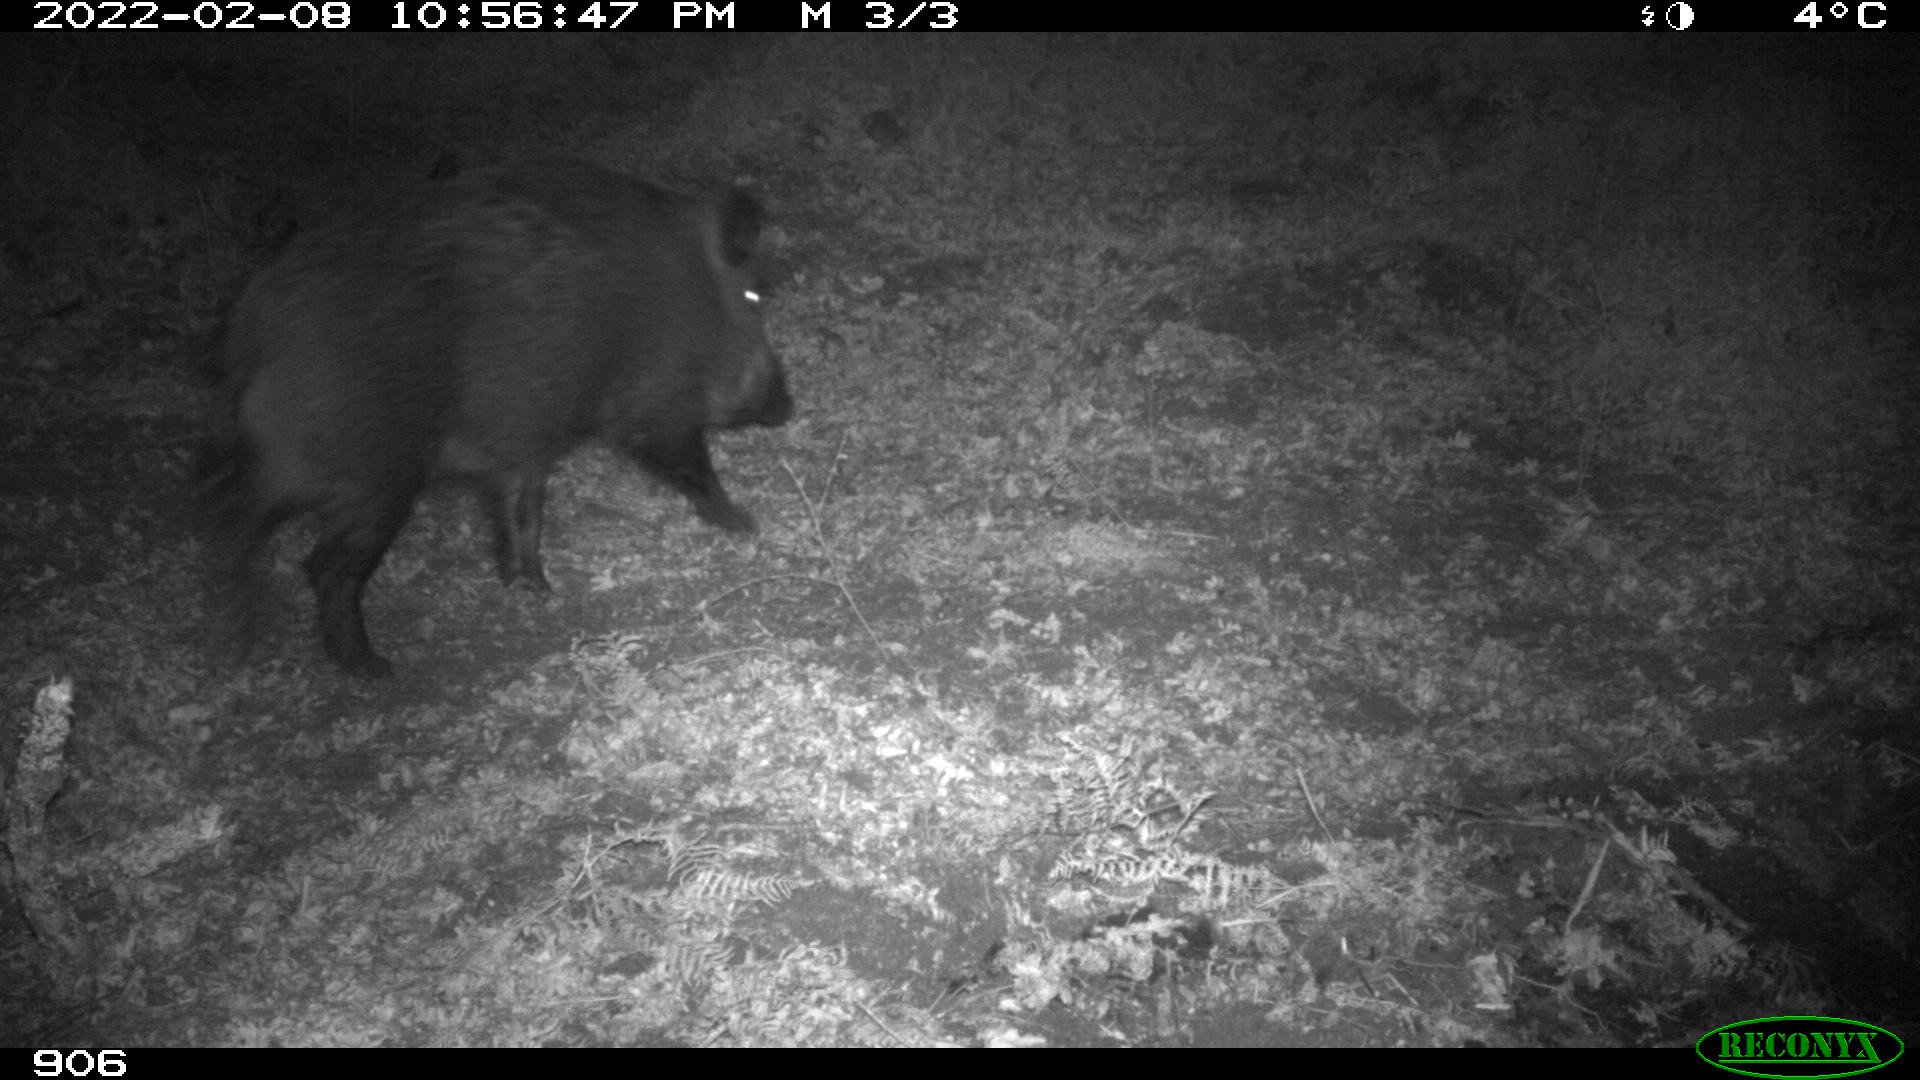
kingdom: Animalia
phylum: Chordata
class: Mammalia
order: Artiodactyla
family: Suidae
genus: Sus
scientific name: Sus scrofa
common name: Wild boar
